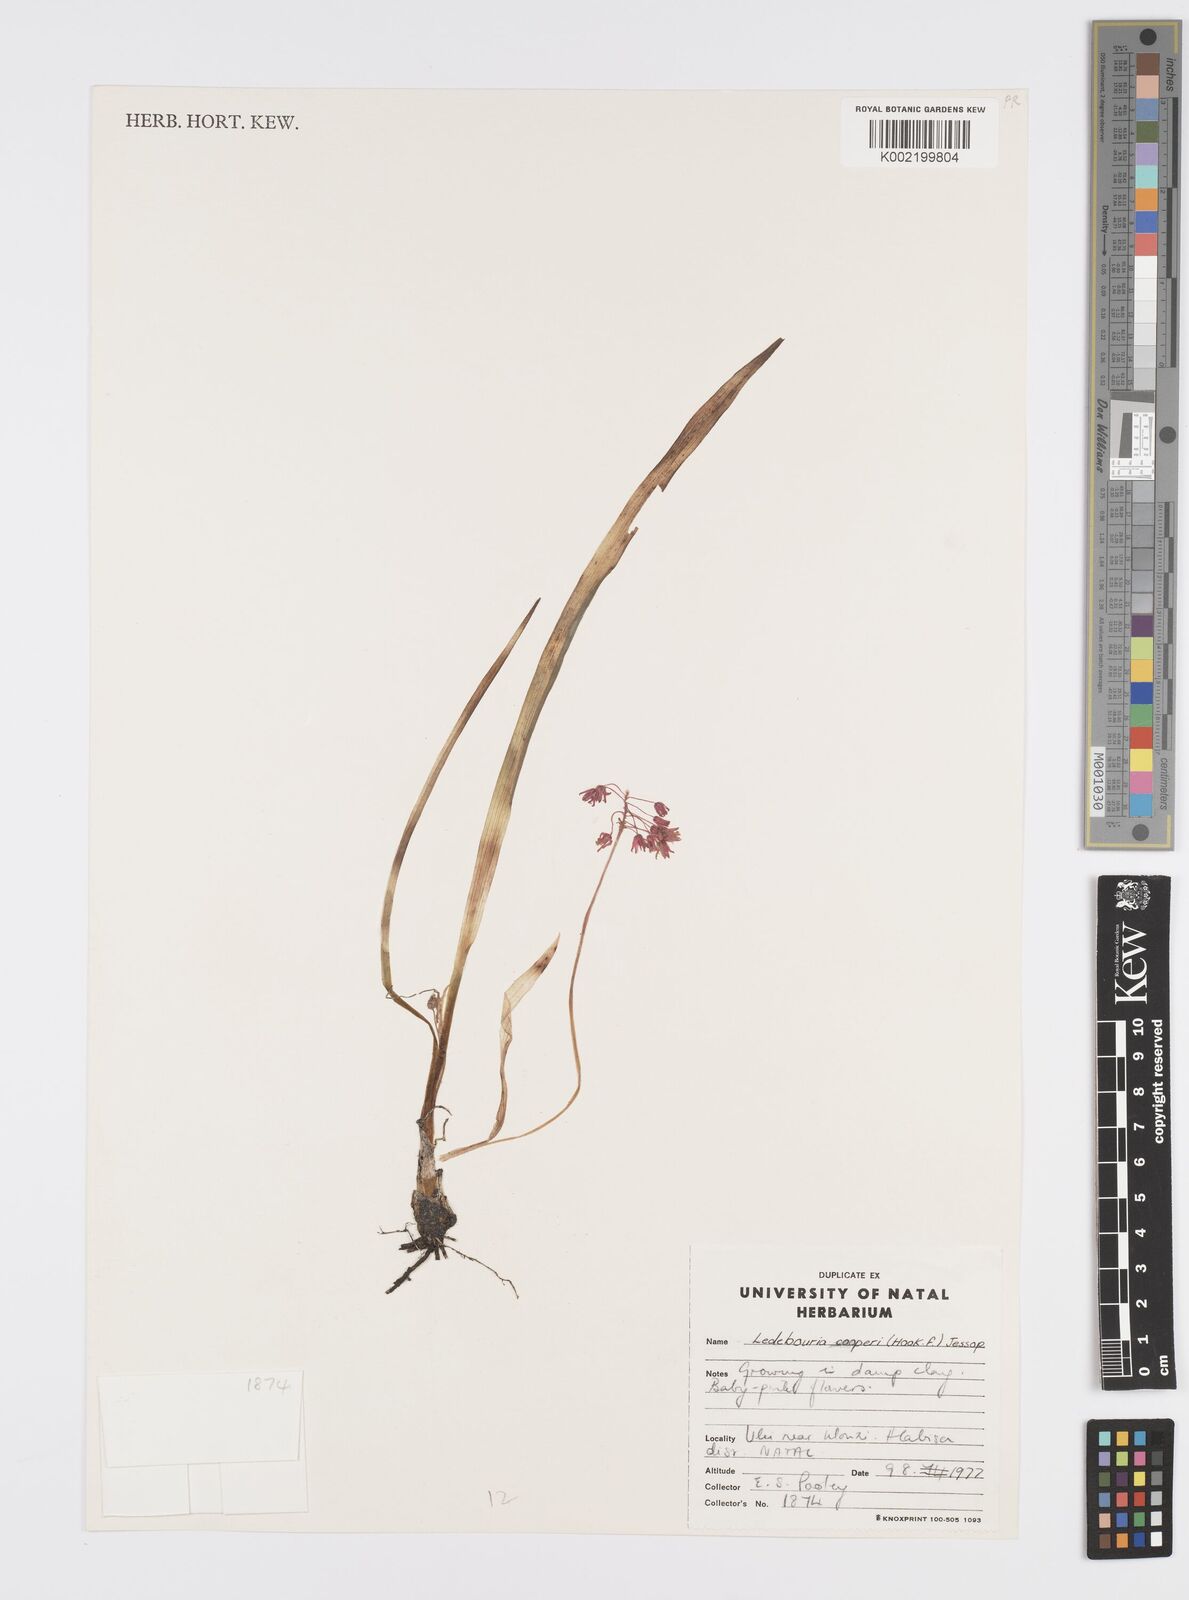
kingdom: Plantae
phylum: Tracheophyta
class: Liliopsida
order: Asparagales
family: Asparagaceae
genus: Ledebouria
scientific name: Ledebouria cooperi
